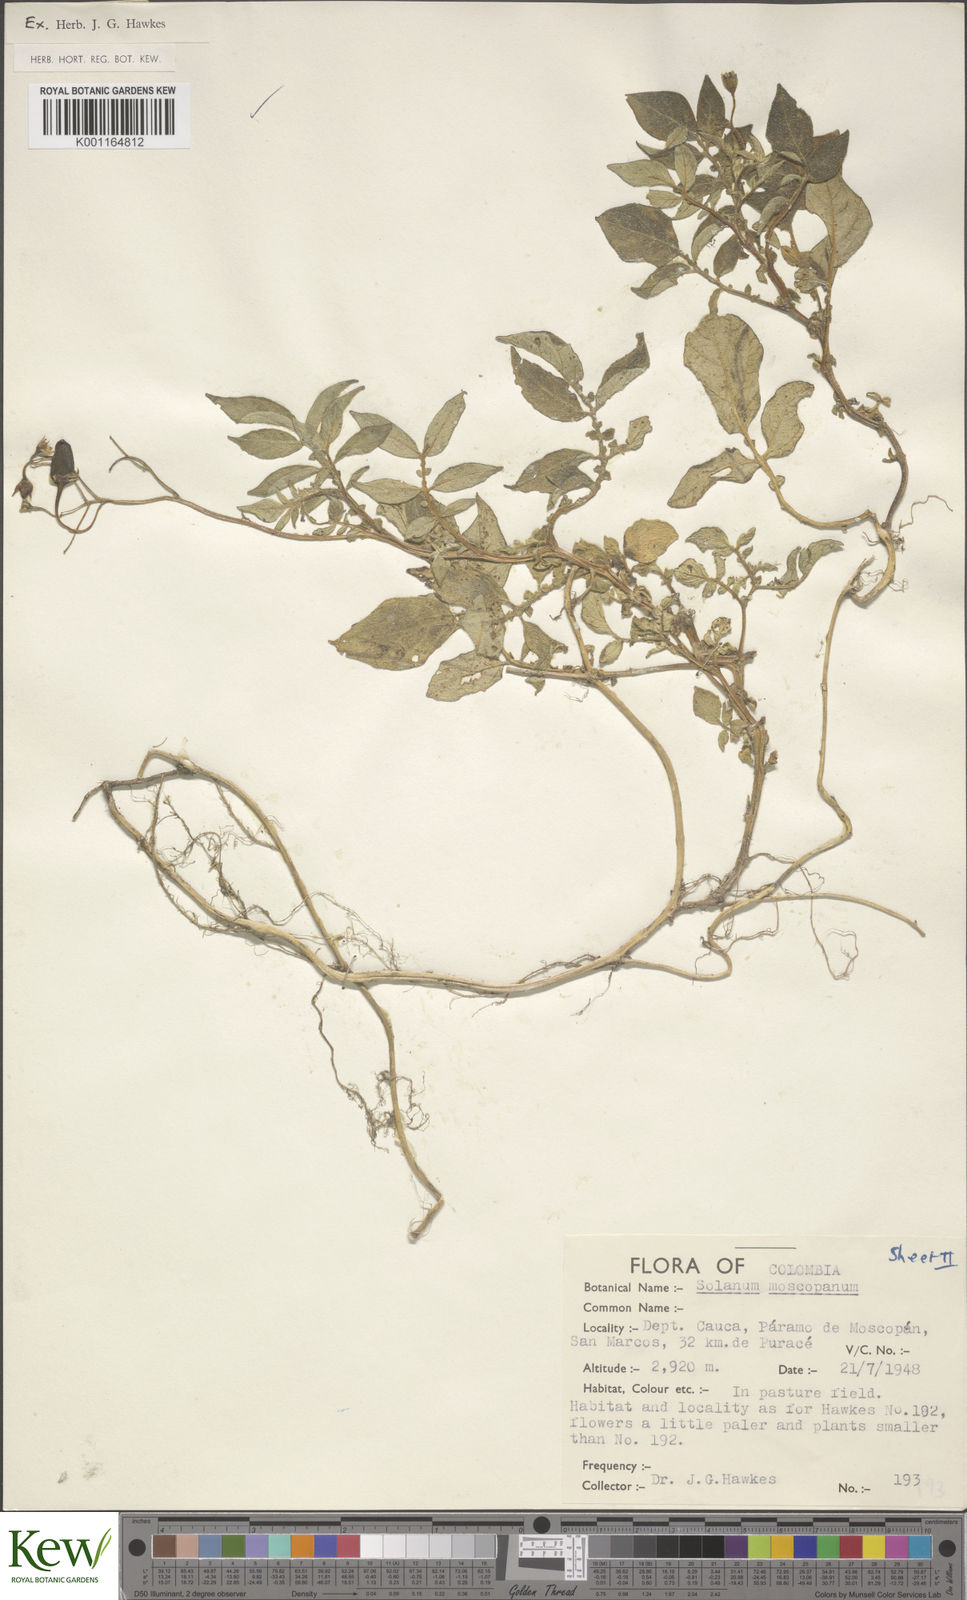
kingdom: Plantae
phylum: Tracheophyta
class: Magnoliopsida
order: Solanales
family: Solanaceae
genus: Solanum
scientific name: Solanum colombianum
